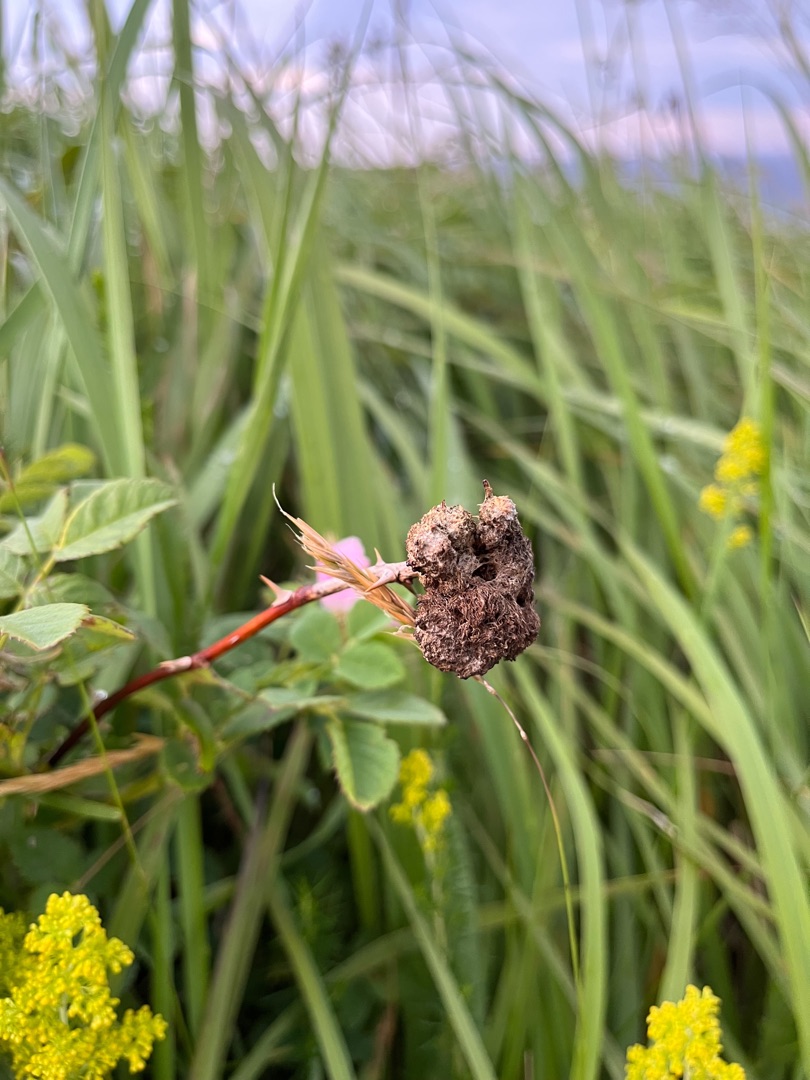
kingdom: Animalia
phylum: Arthropoda
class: Insecta
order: Hymenoptera
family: Cynipidae
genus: Diplolepis
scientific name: Diplolepis rosae
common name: Bedeguargalhveps
